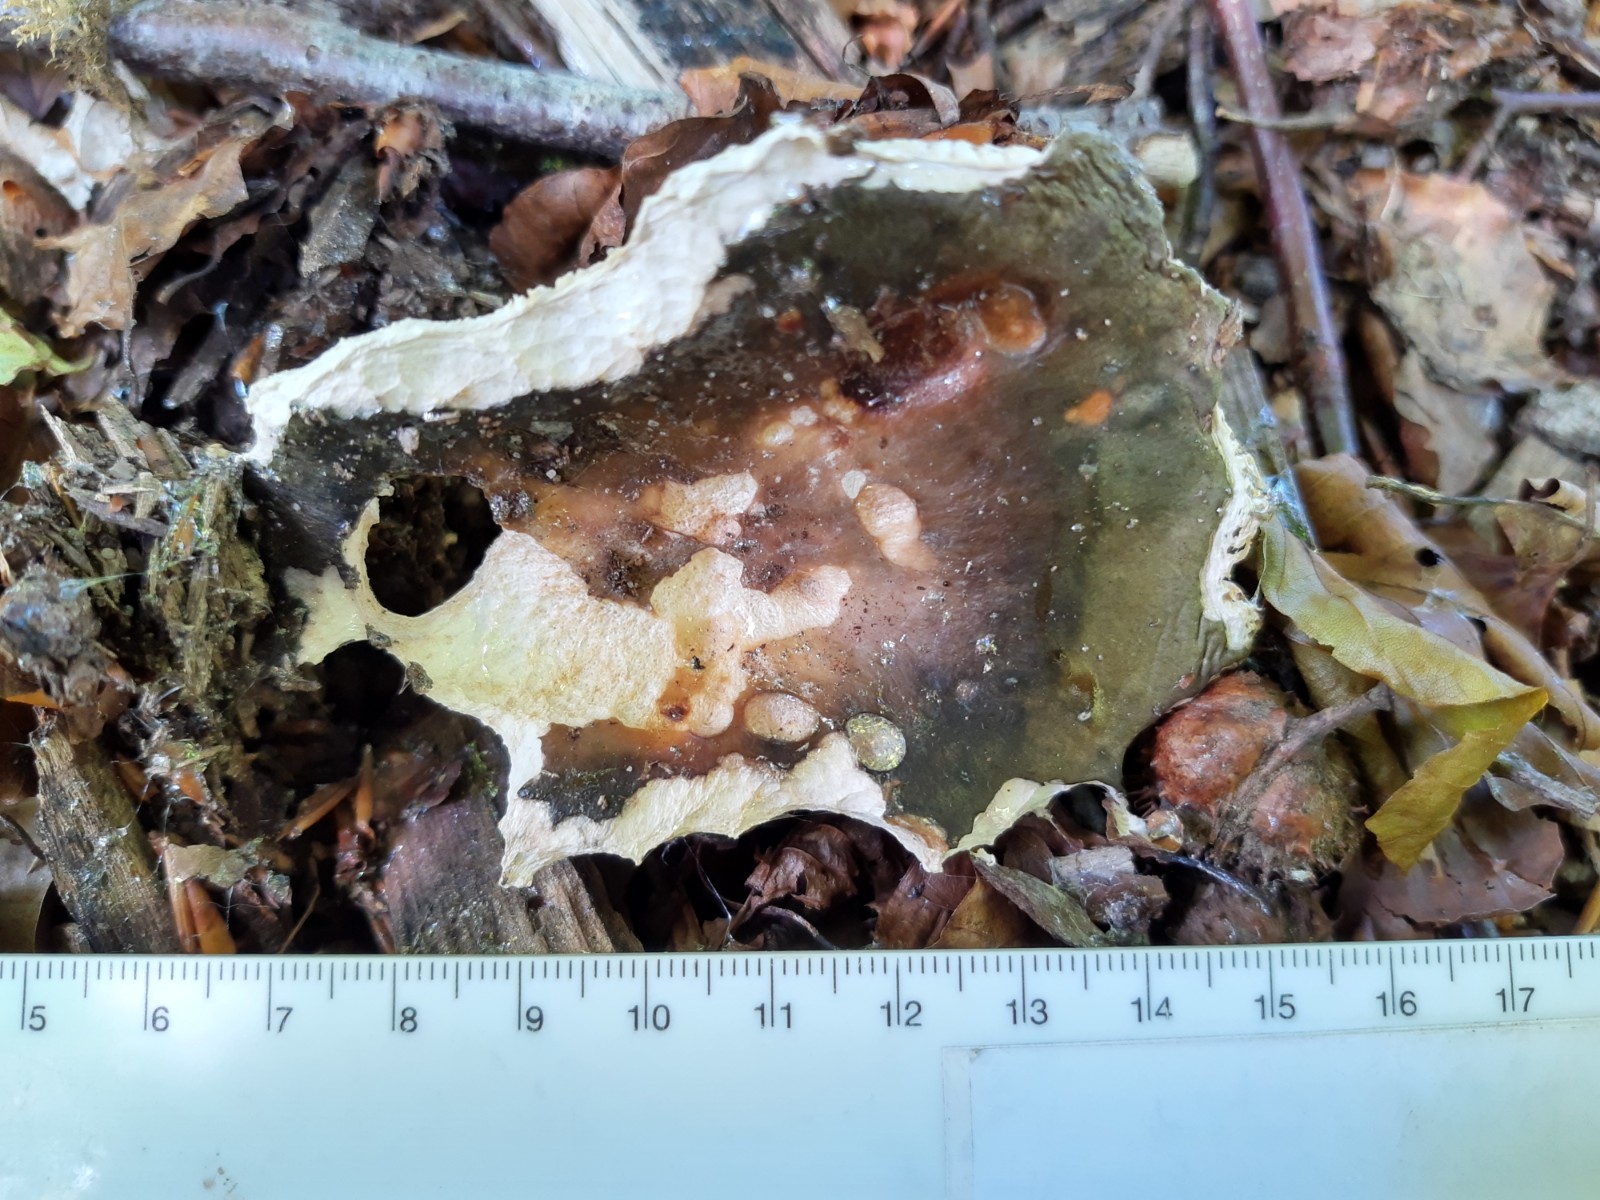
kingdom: Fungi
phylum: Basidiomycota
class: Agaricomycetes
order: Russulales
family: Russulaceae
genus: Russula
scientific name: Russula
